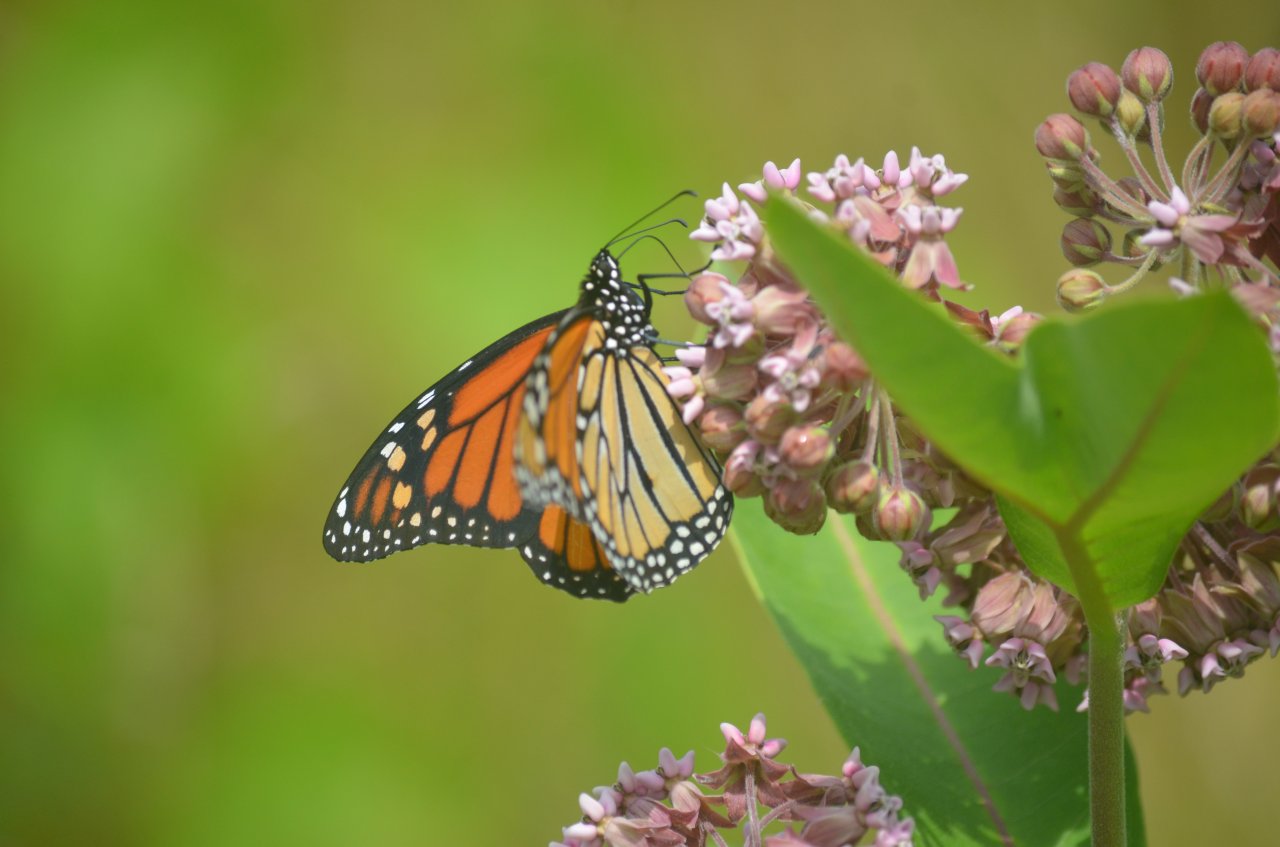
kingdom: Animalia
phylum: Arthropoda
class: Insecta
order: Lepidoptera
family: Nymphalidae
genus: Danaus
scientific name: Danaus plexippus
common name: Monarch
